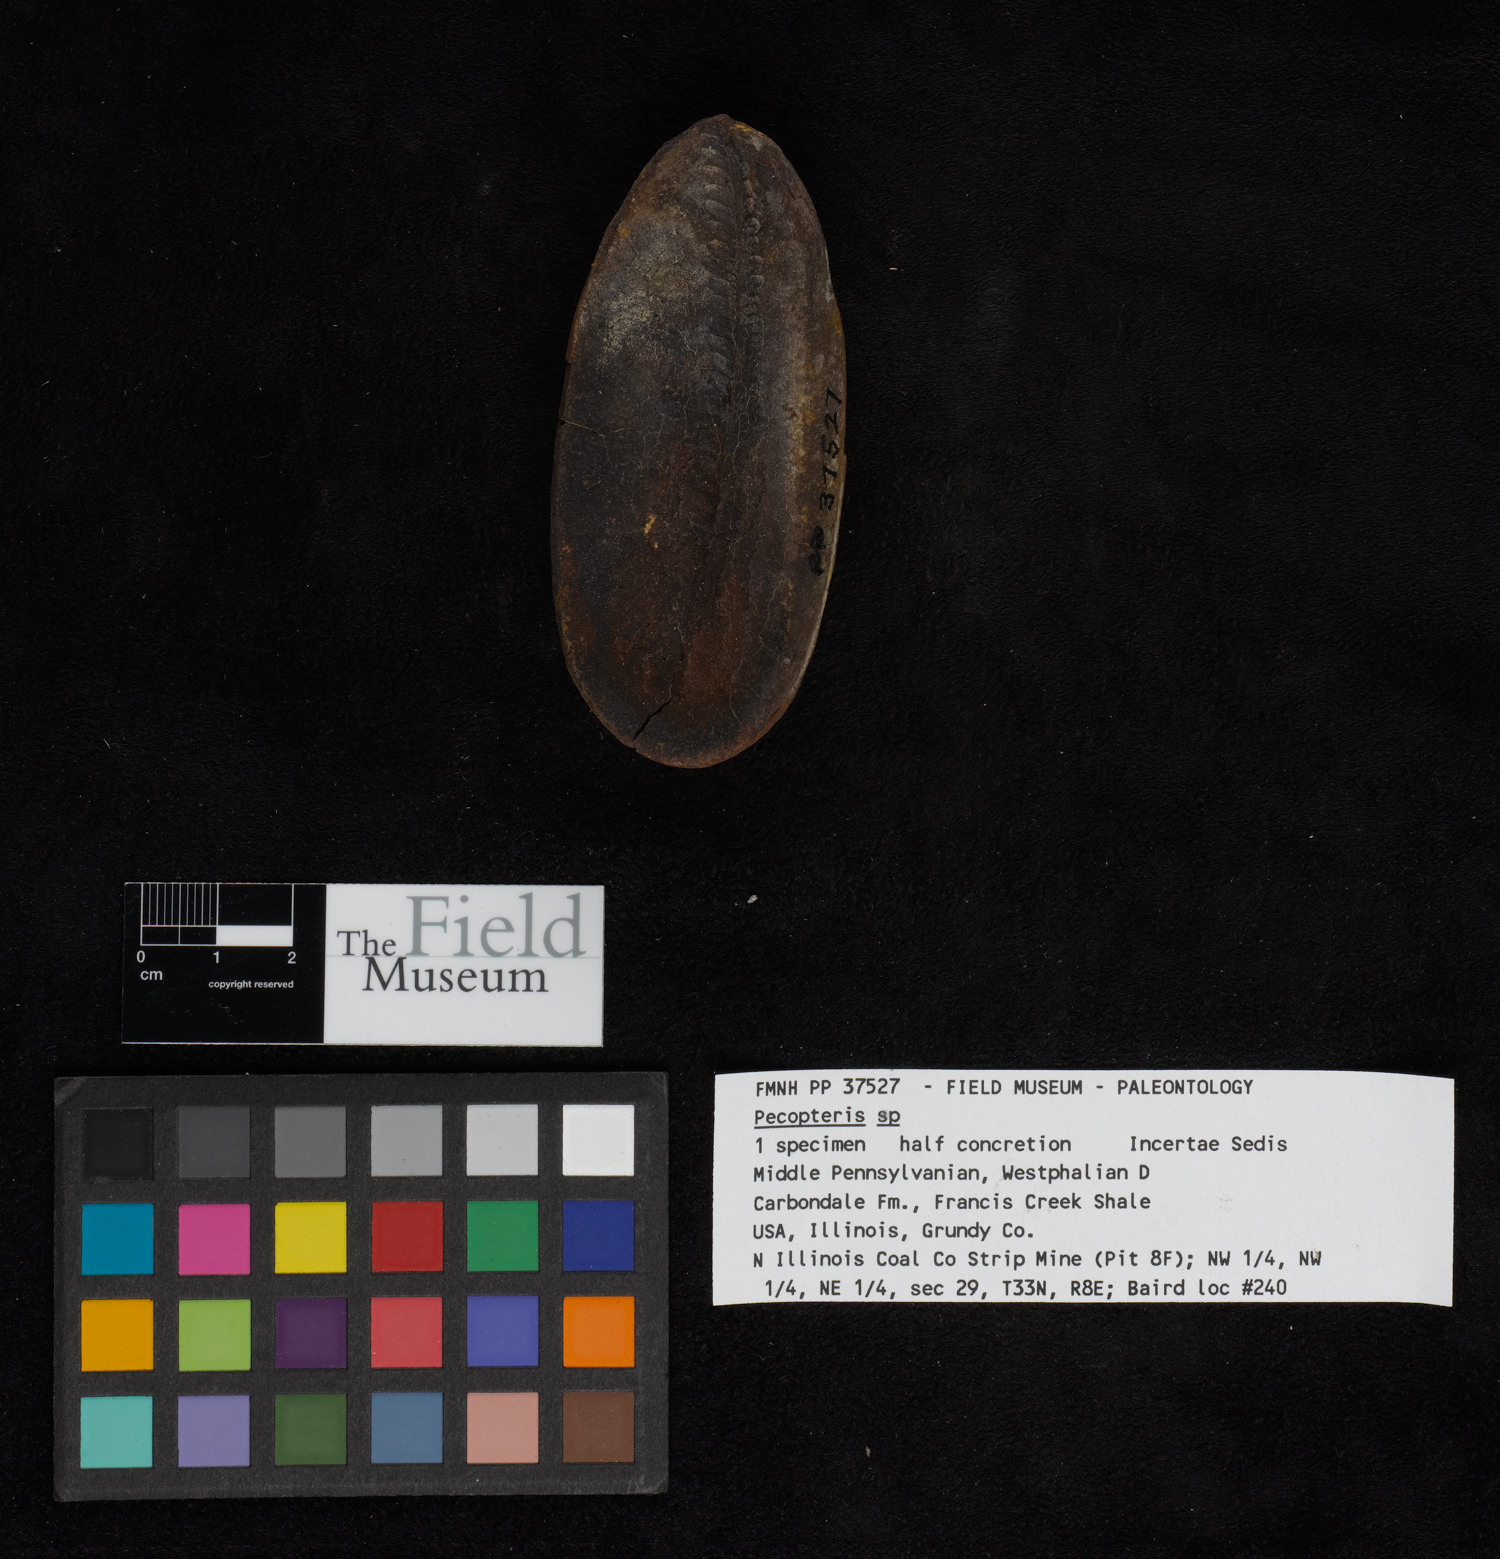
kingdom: Plantae
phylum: Tracheophyta
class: Polypodiopsida
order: Marattiales
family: Asterothecaceae
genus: Pecopteris
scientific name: Pecopteris
